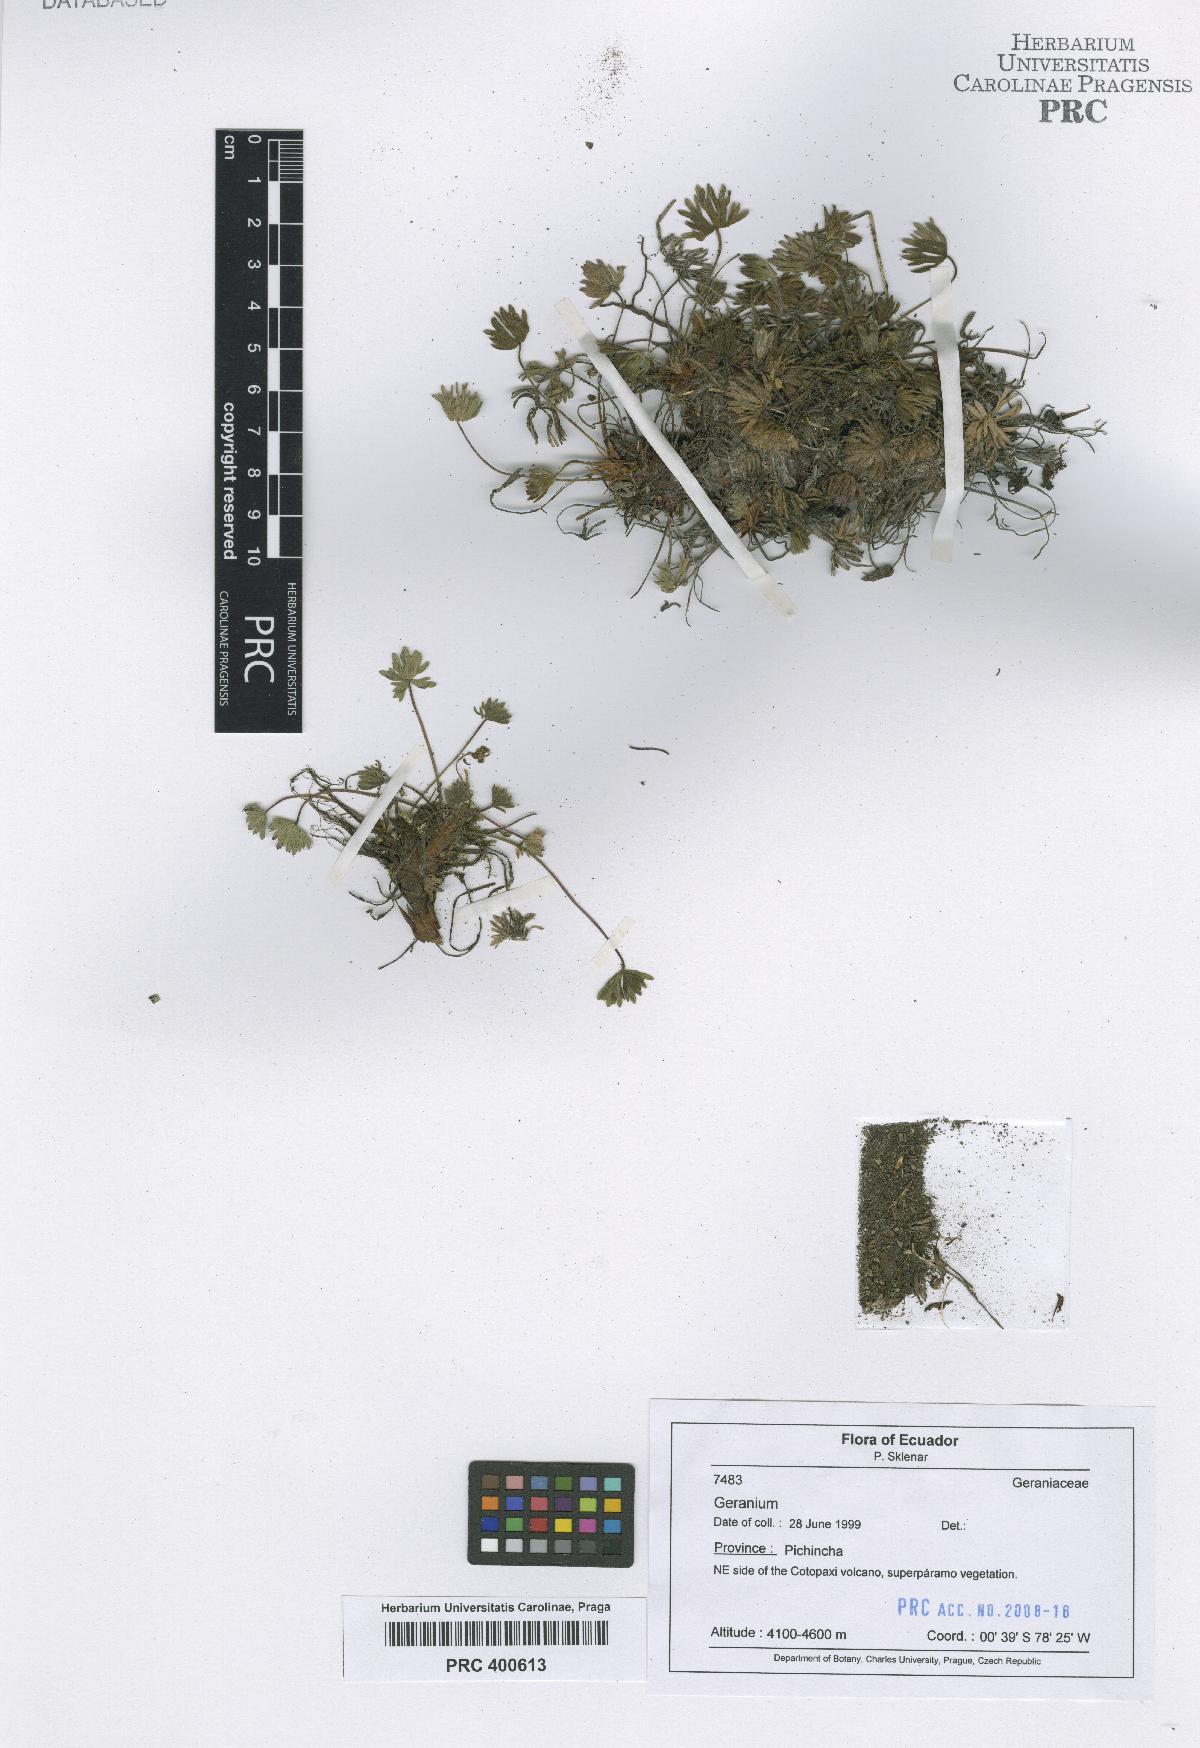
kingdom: Plantae
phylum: Tracheophyta
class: Magnoliopsida
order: Geraniales
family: Geraniaceae
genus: Geranium
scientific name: Geranium multipartitum
